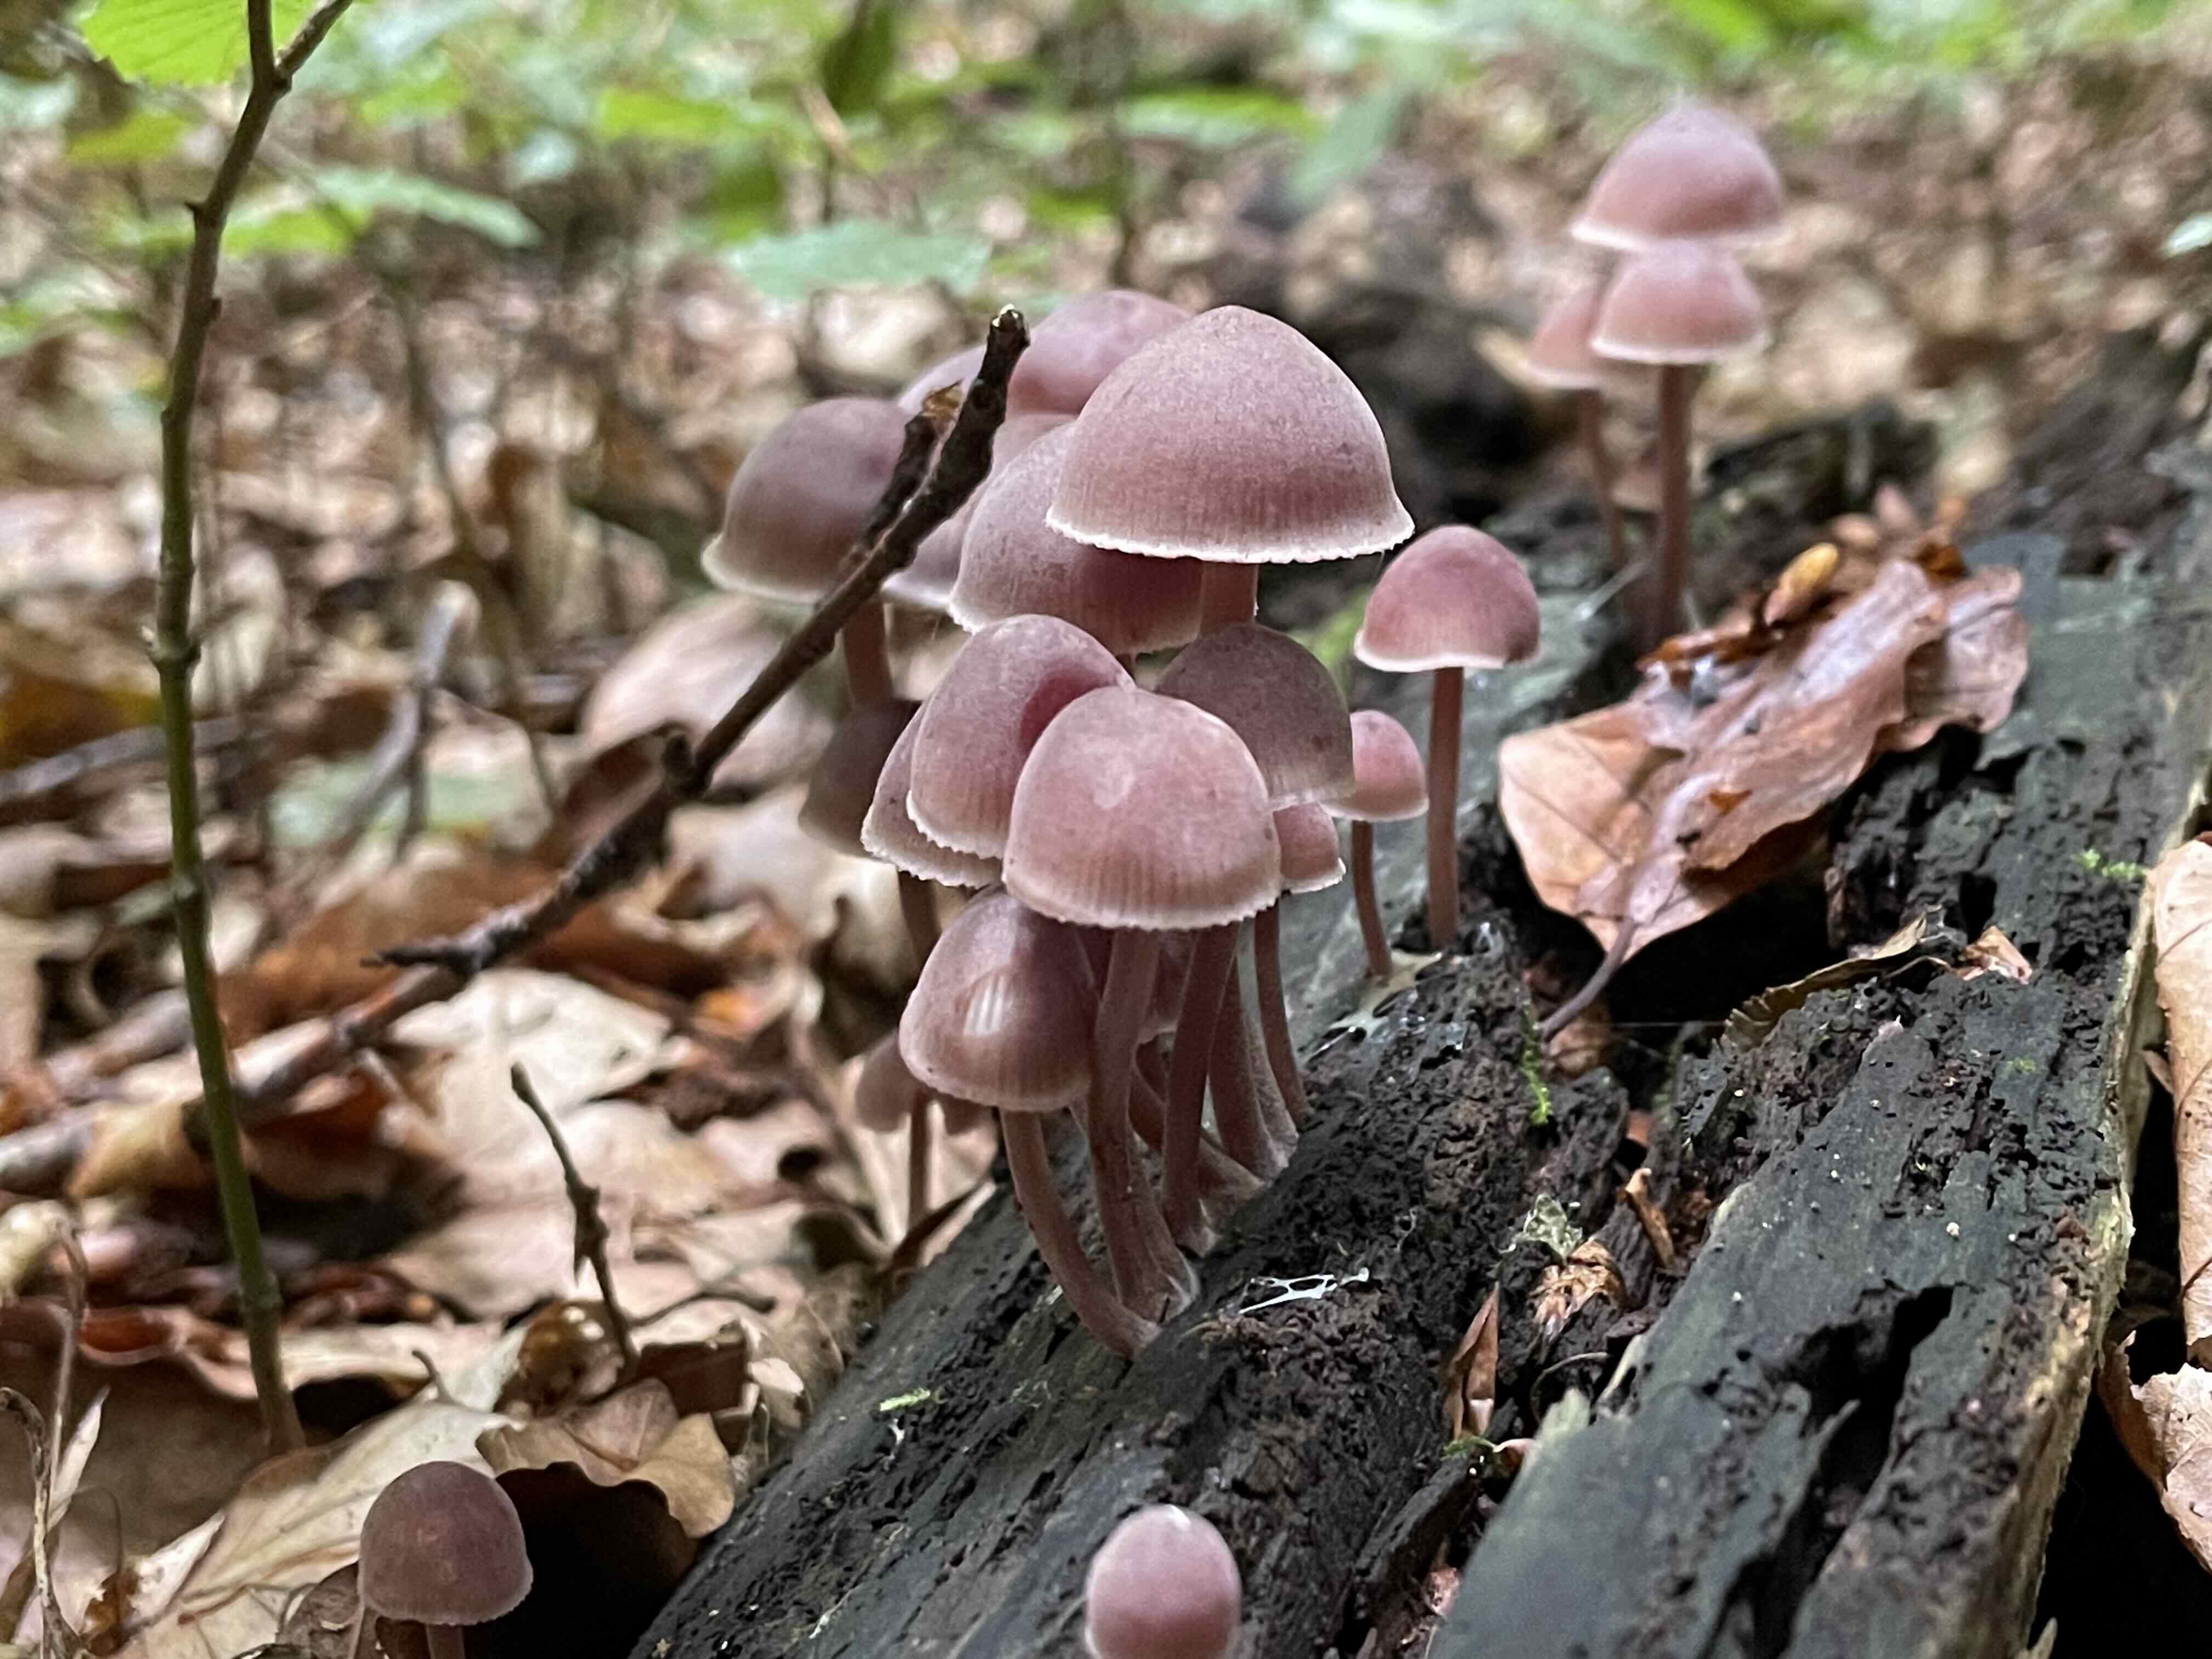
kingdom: Fungi
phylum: Basidiomycota
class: Agaricomycetes
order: Agaricales
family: Mycenaceae
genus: Mycena
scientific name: Mycena haematopus
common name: blødende huesvamp
